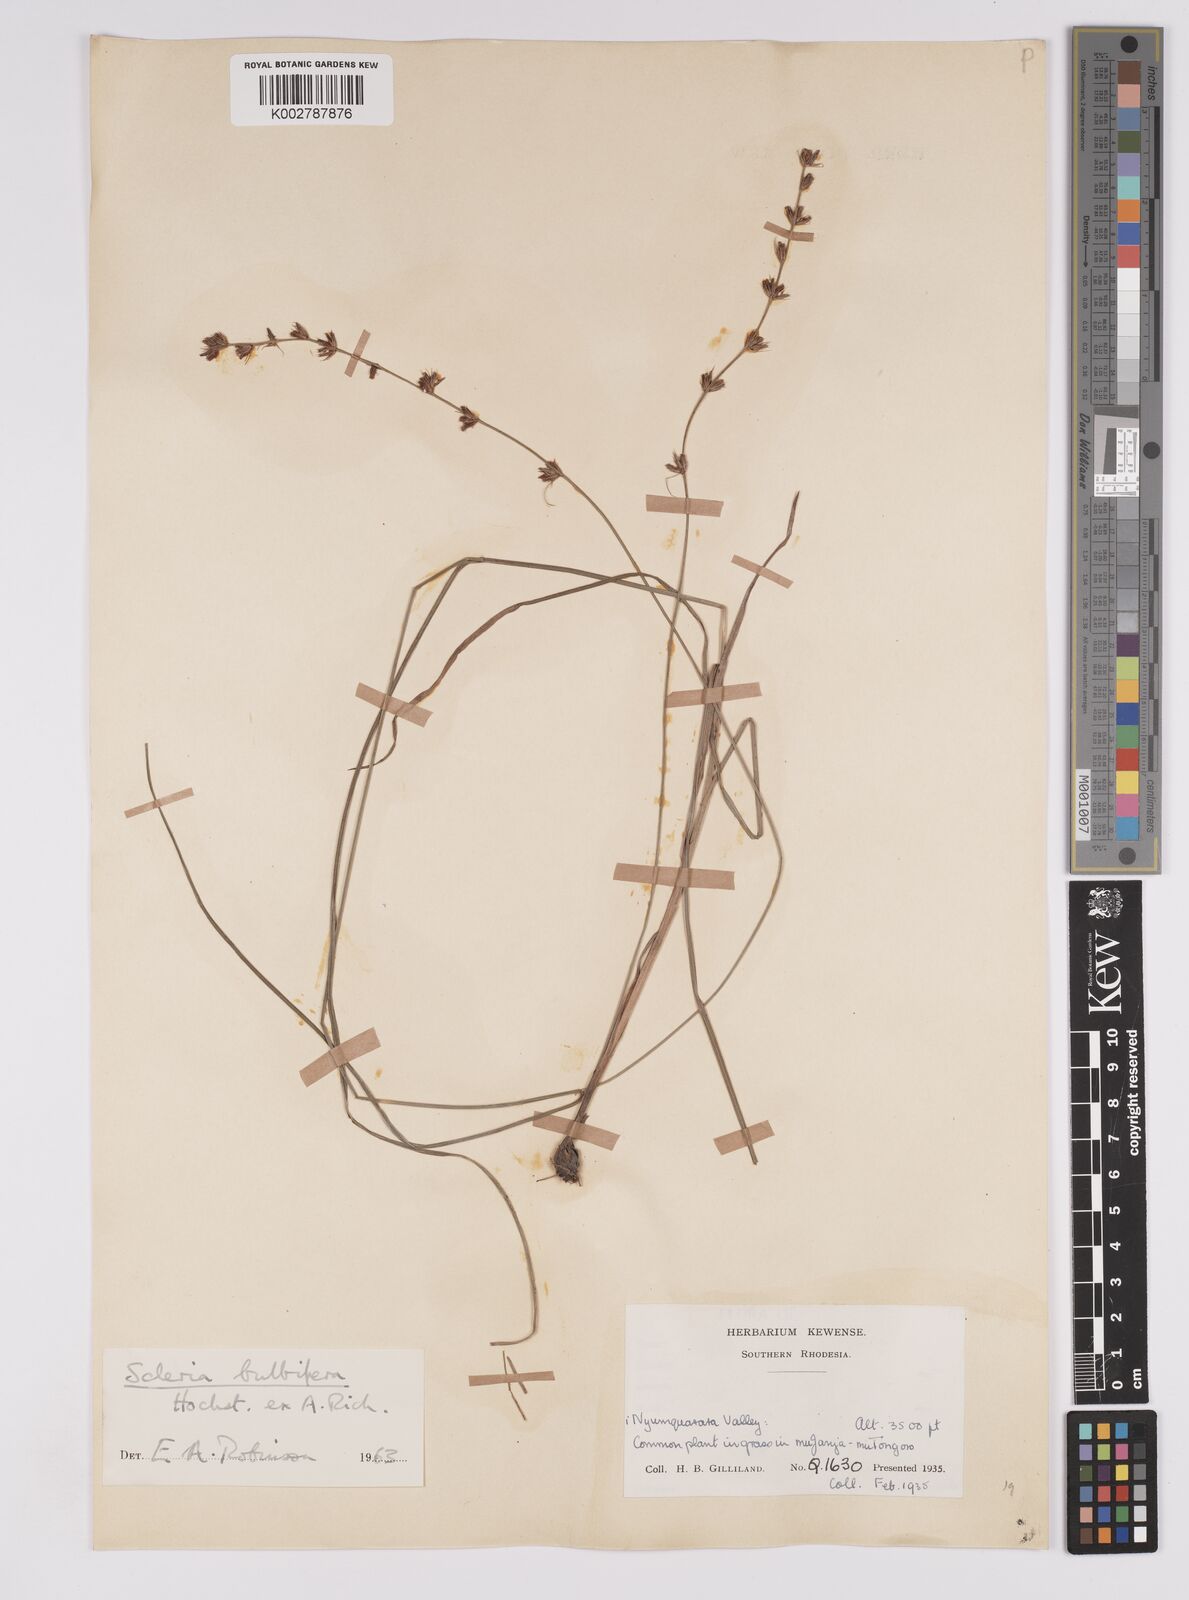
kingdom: Plantae
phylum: Tracheophyta
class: Liliopsida
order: Poales
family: Cyperaceae
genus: Scleria
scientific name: Scleria bulbifera
